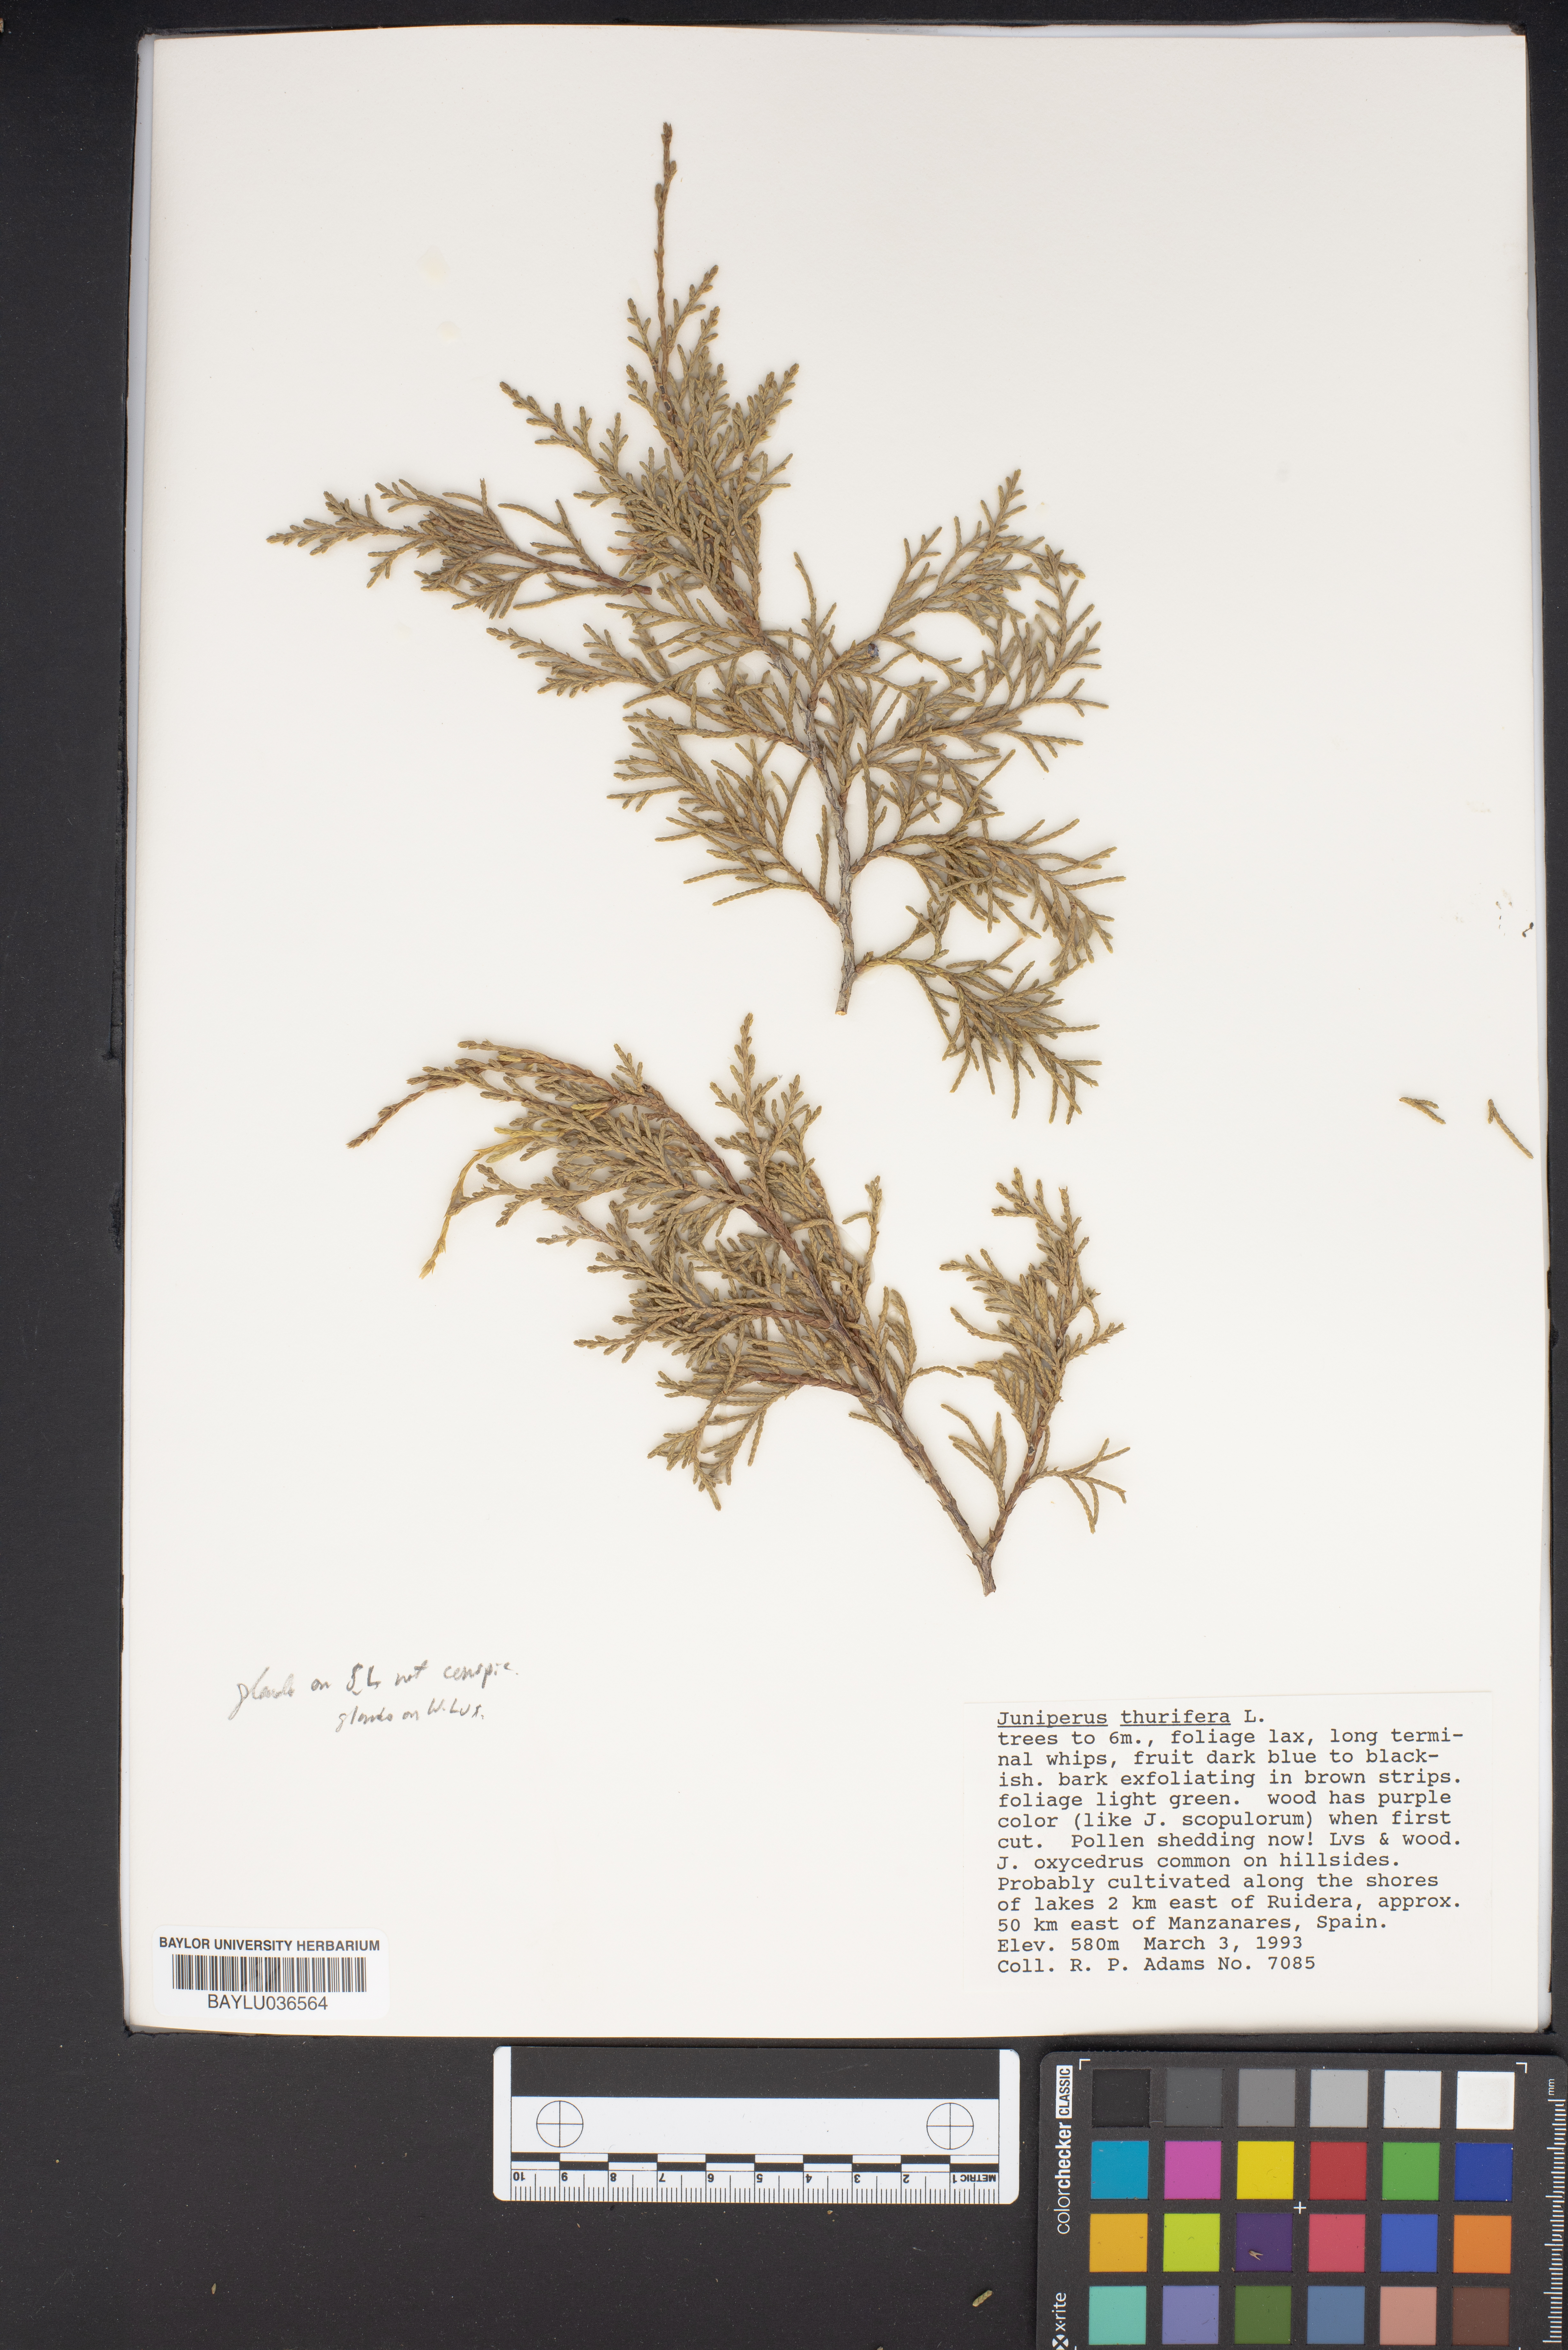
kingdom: Plantae
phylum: Tracheophyta
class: Pinopsida
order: Pinales
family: Cupressaceae
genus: Juniperus
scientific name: Juniperus thurifera
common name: Incense juniper
